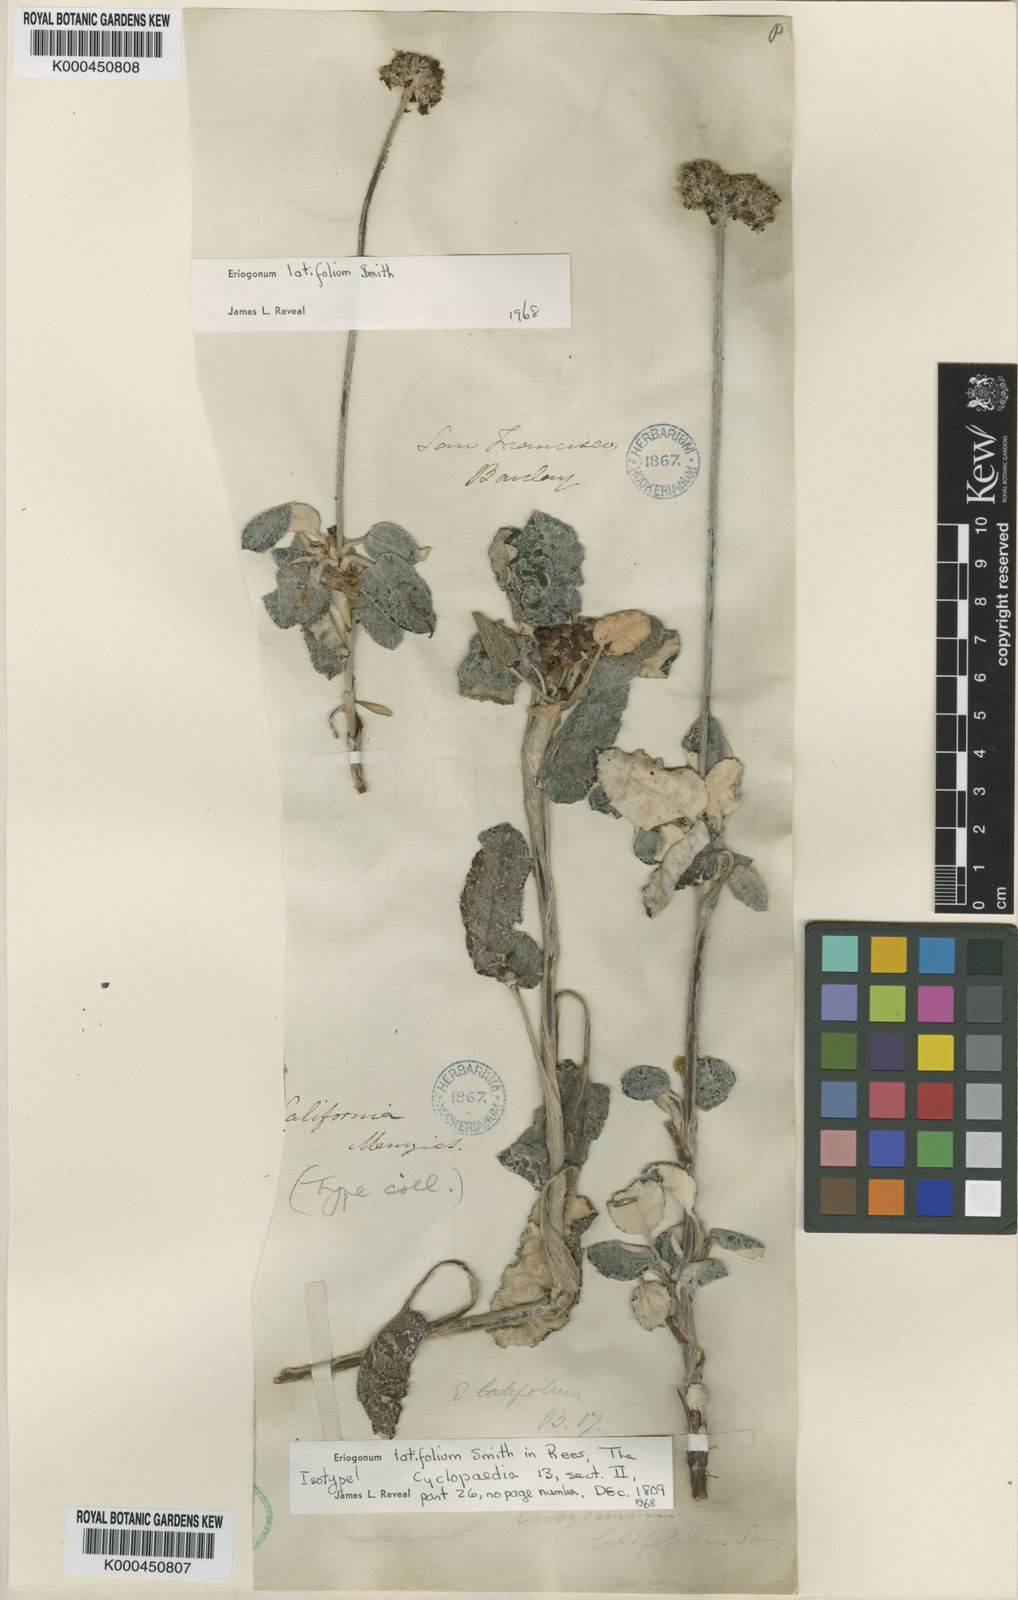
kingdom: Plantae
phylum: Tracheophyta
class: Magnoliopsida
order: Caryophyllales
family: Polygonaceae
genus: Eriogonum
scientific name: Eriogonum latifolium
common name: Seaside wild buckwheat
